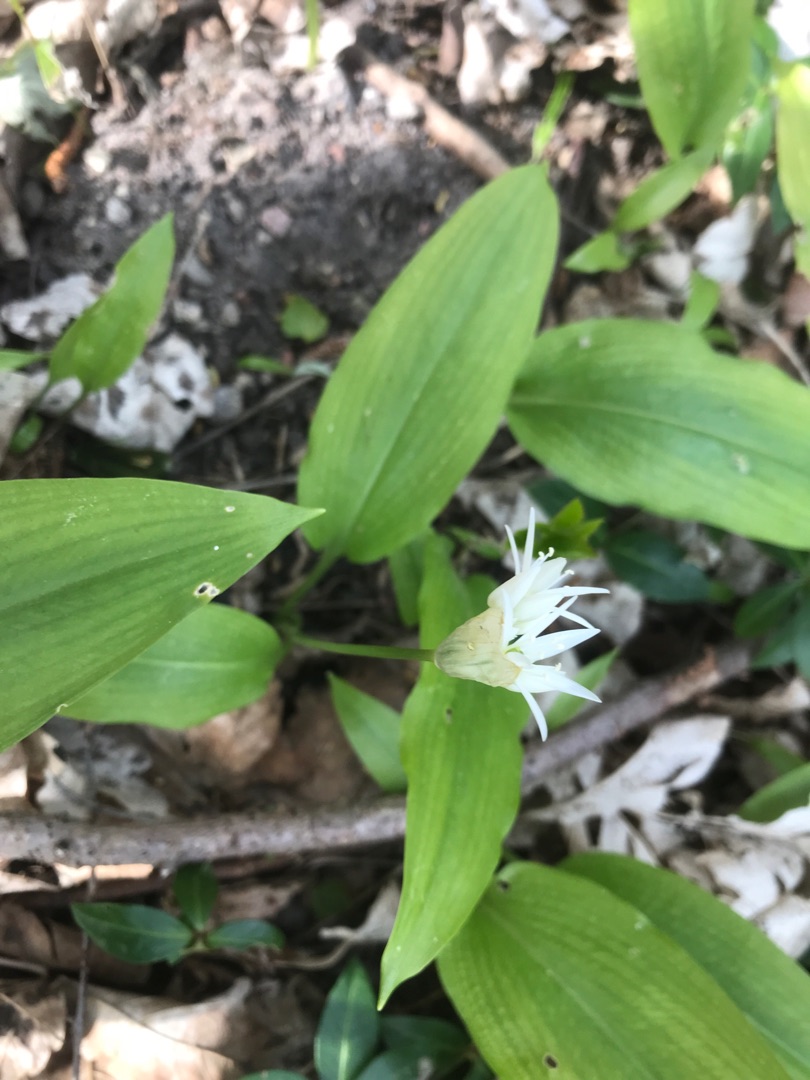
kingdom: Plantae
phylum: Tracheophyta
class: Liliopsida
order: Asparagales
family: Amaryllidaceae
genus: Allium
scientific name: Allium ursinum
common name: Rams-løg
